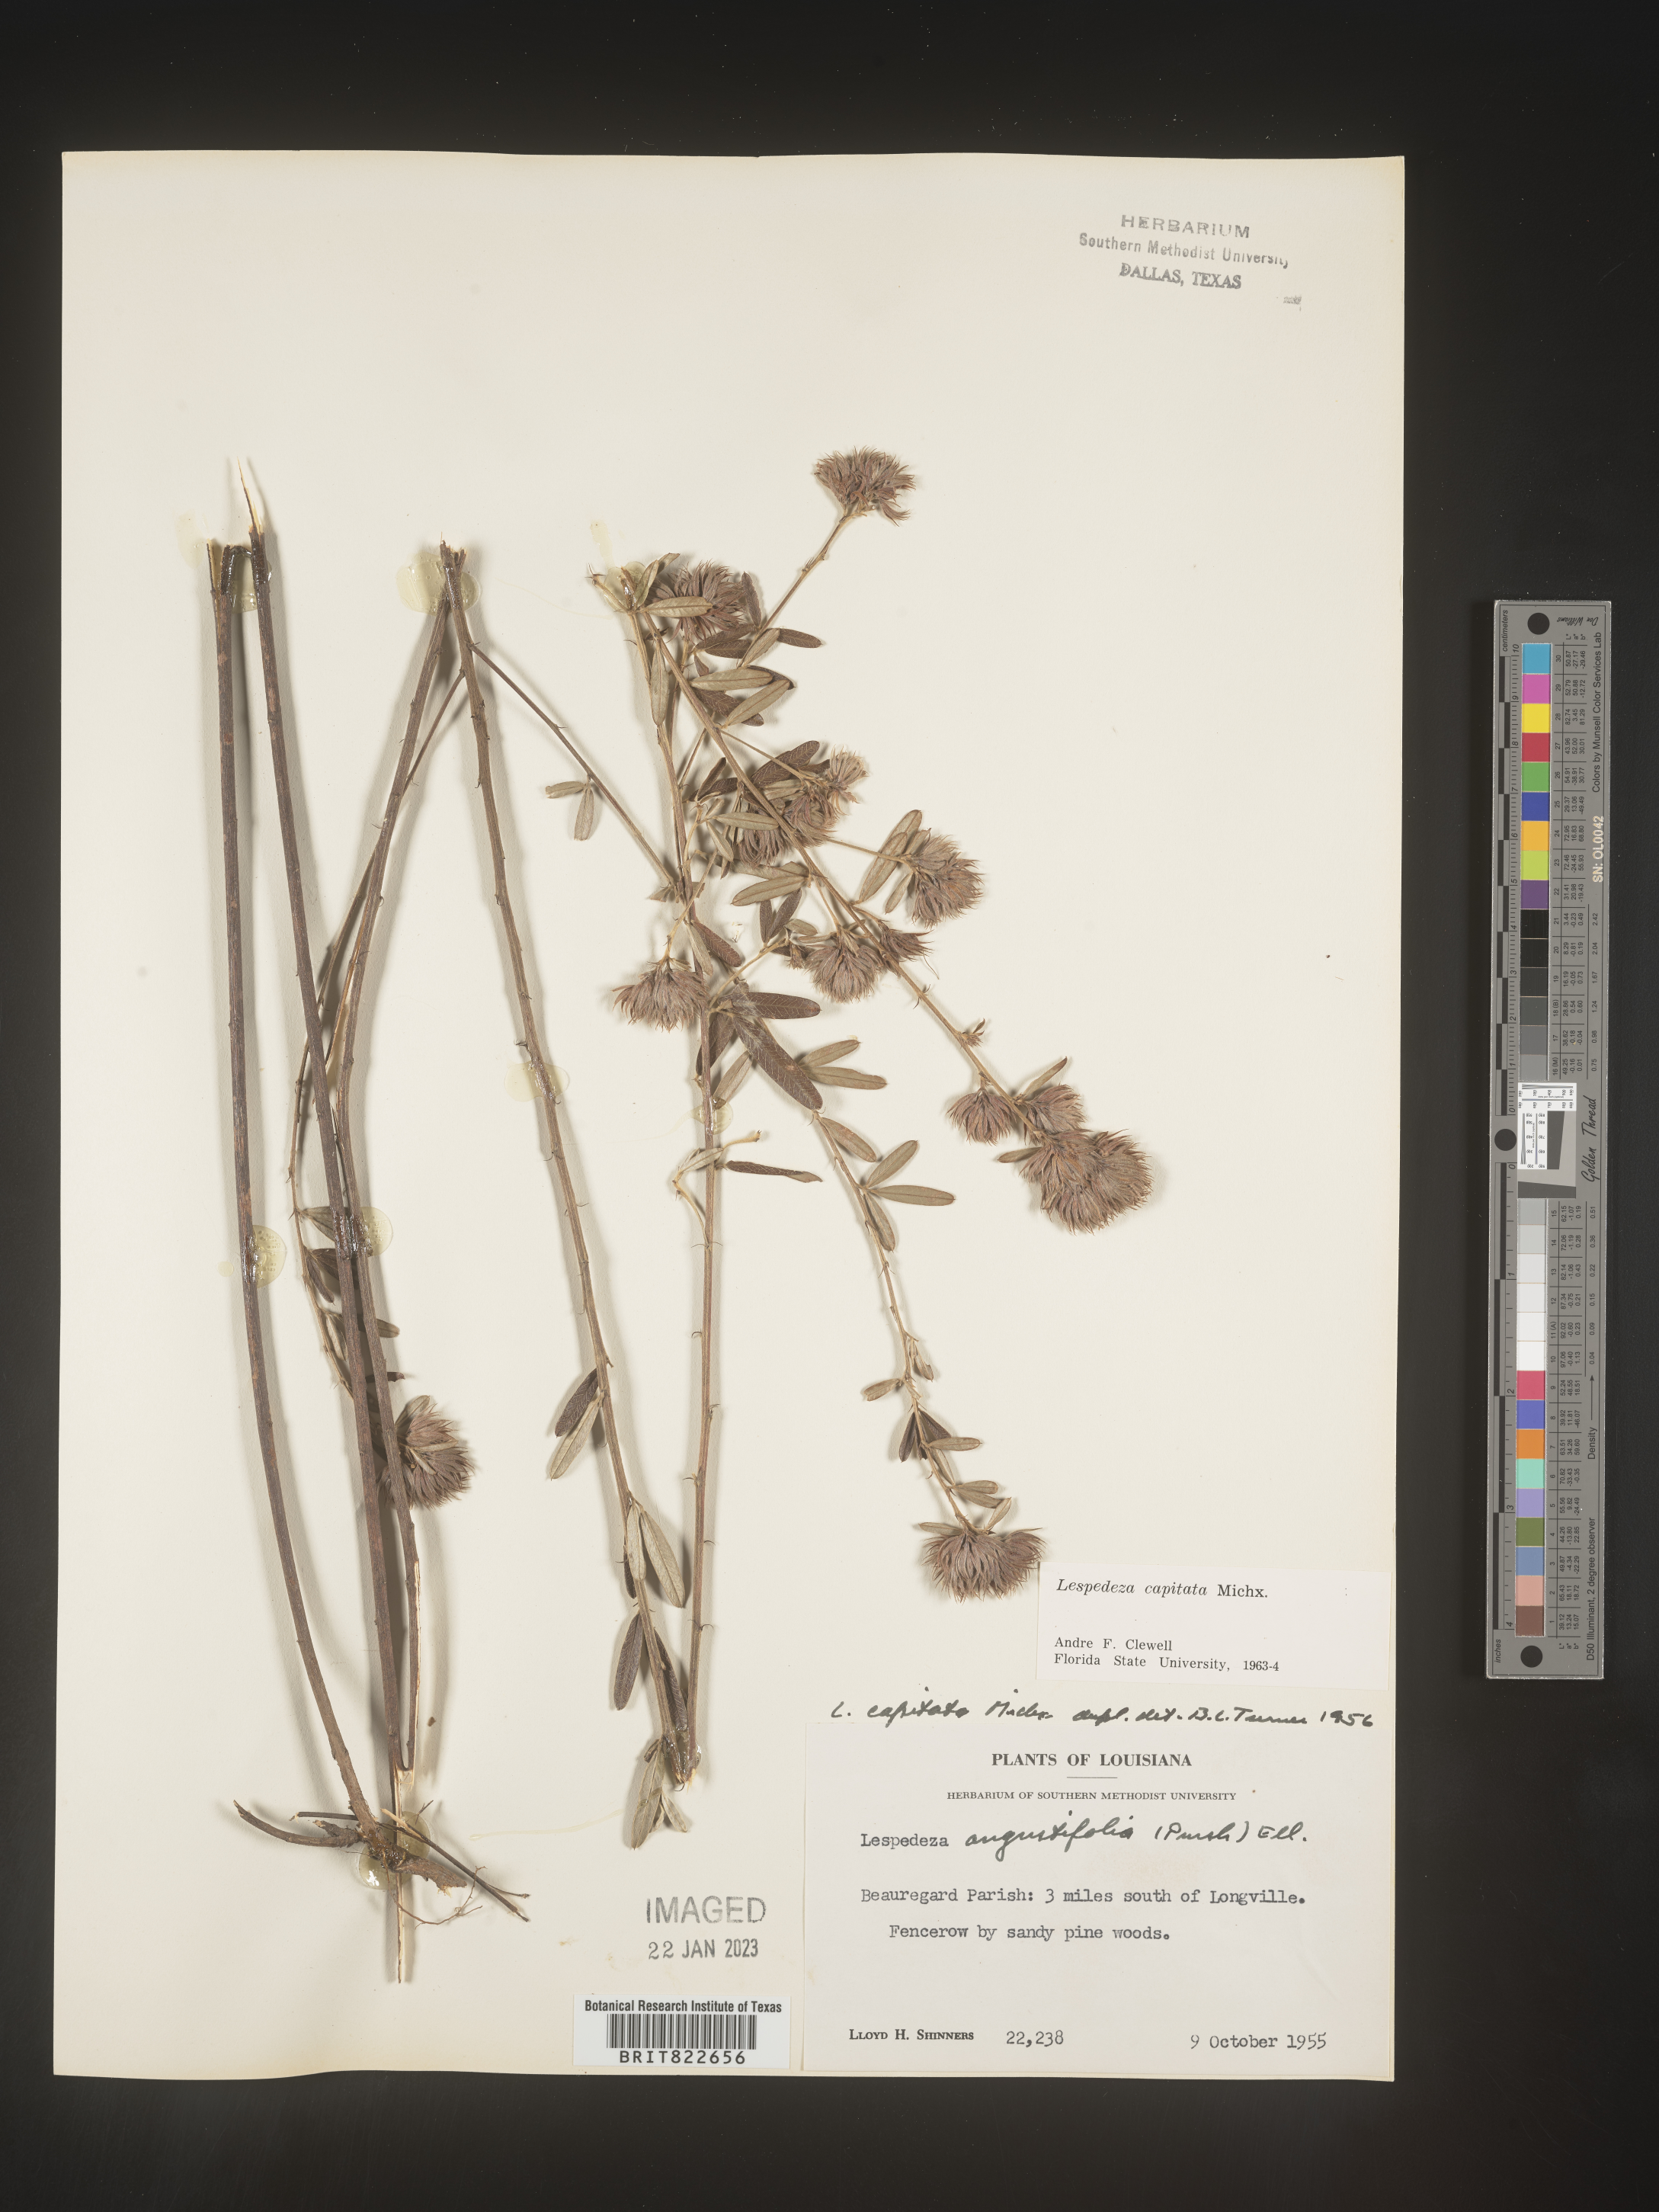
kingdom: Plantae
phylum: Tracheophyta
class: Magnoliopsida
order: Fabales
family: Fabaceae
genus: Lespedeza
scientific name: Lespedeza capitata
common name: Dusty clover
